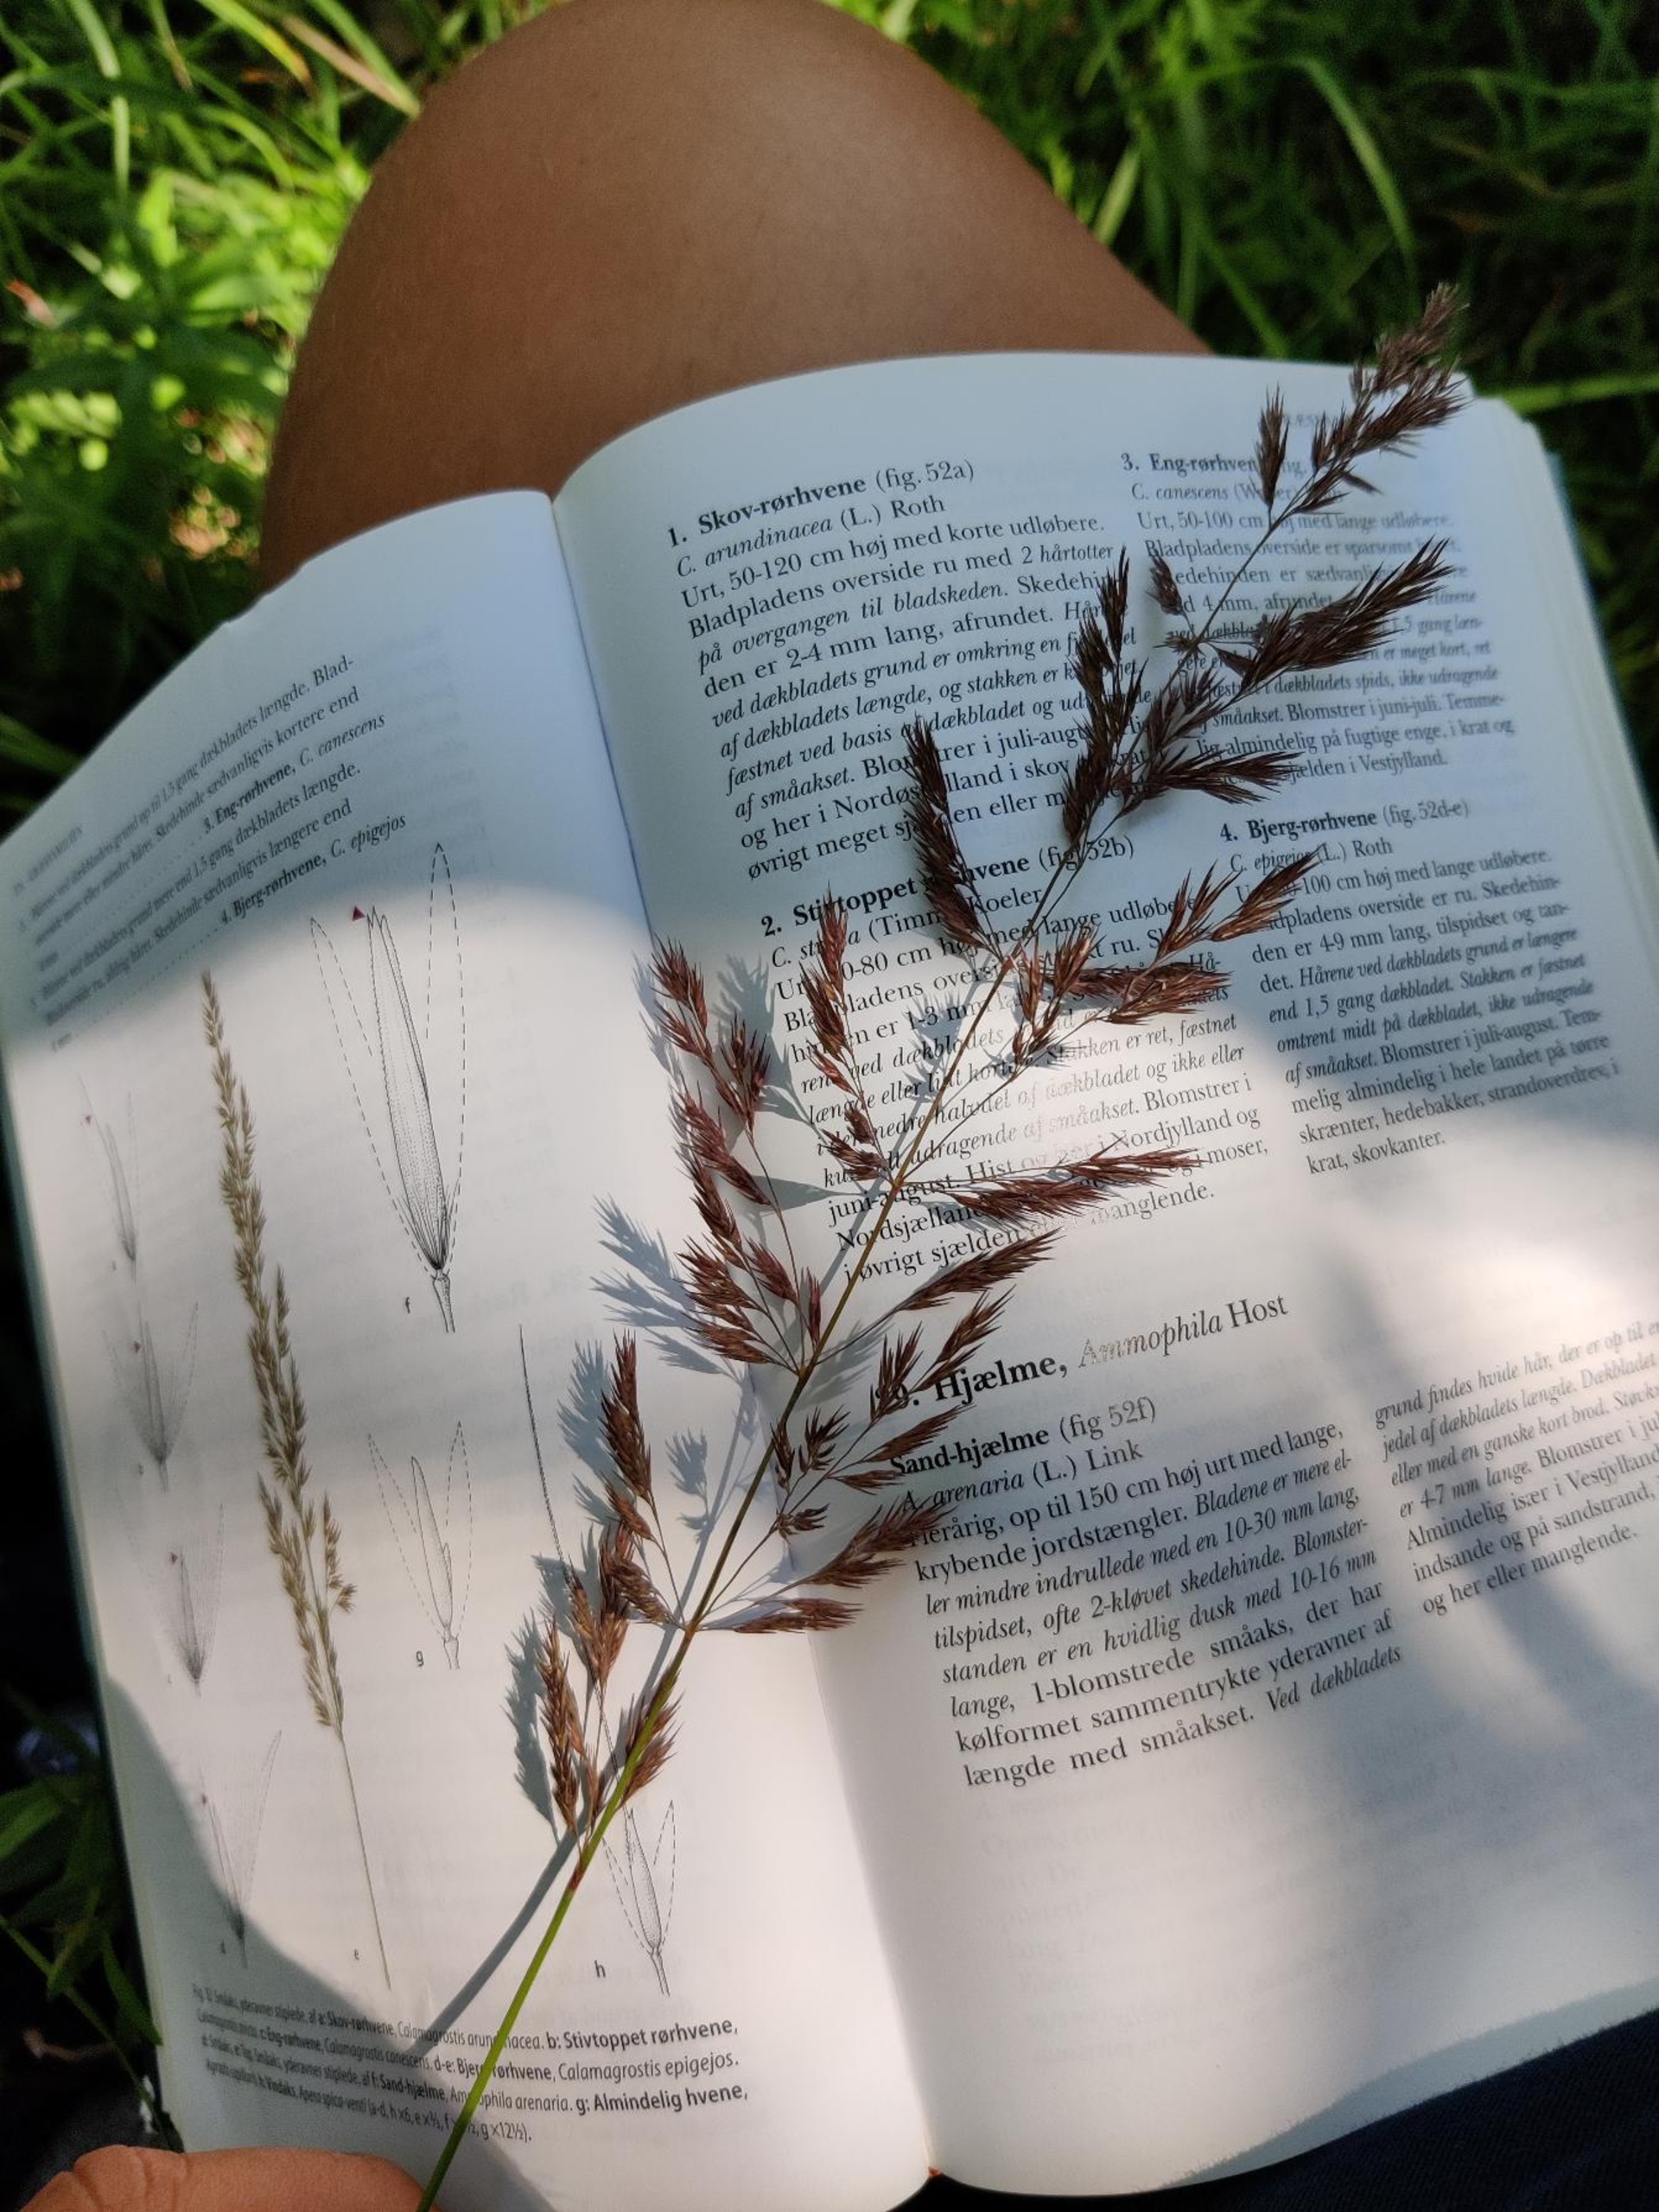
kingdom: Plantae
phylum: Tracheophyta
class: Liliopsida
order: Poales
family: Poaceae
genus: Calamagrostis
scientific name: Calamagrostis epigejos
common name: Bjerg-rørhvene
